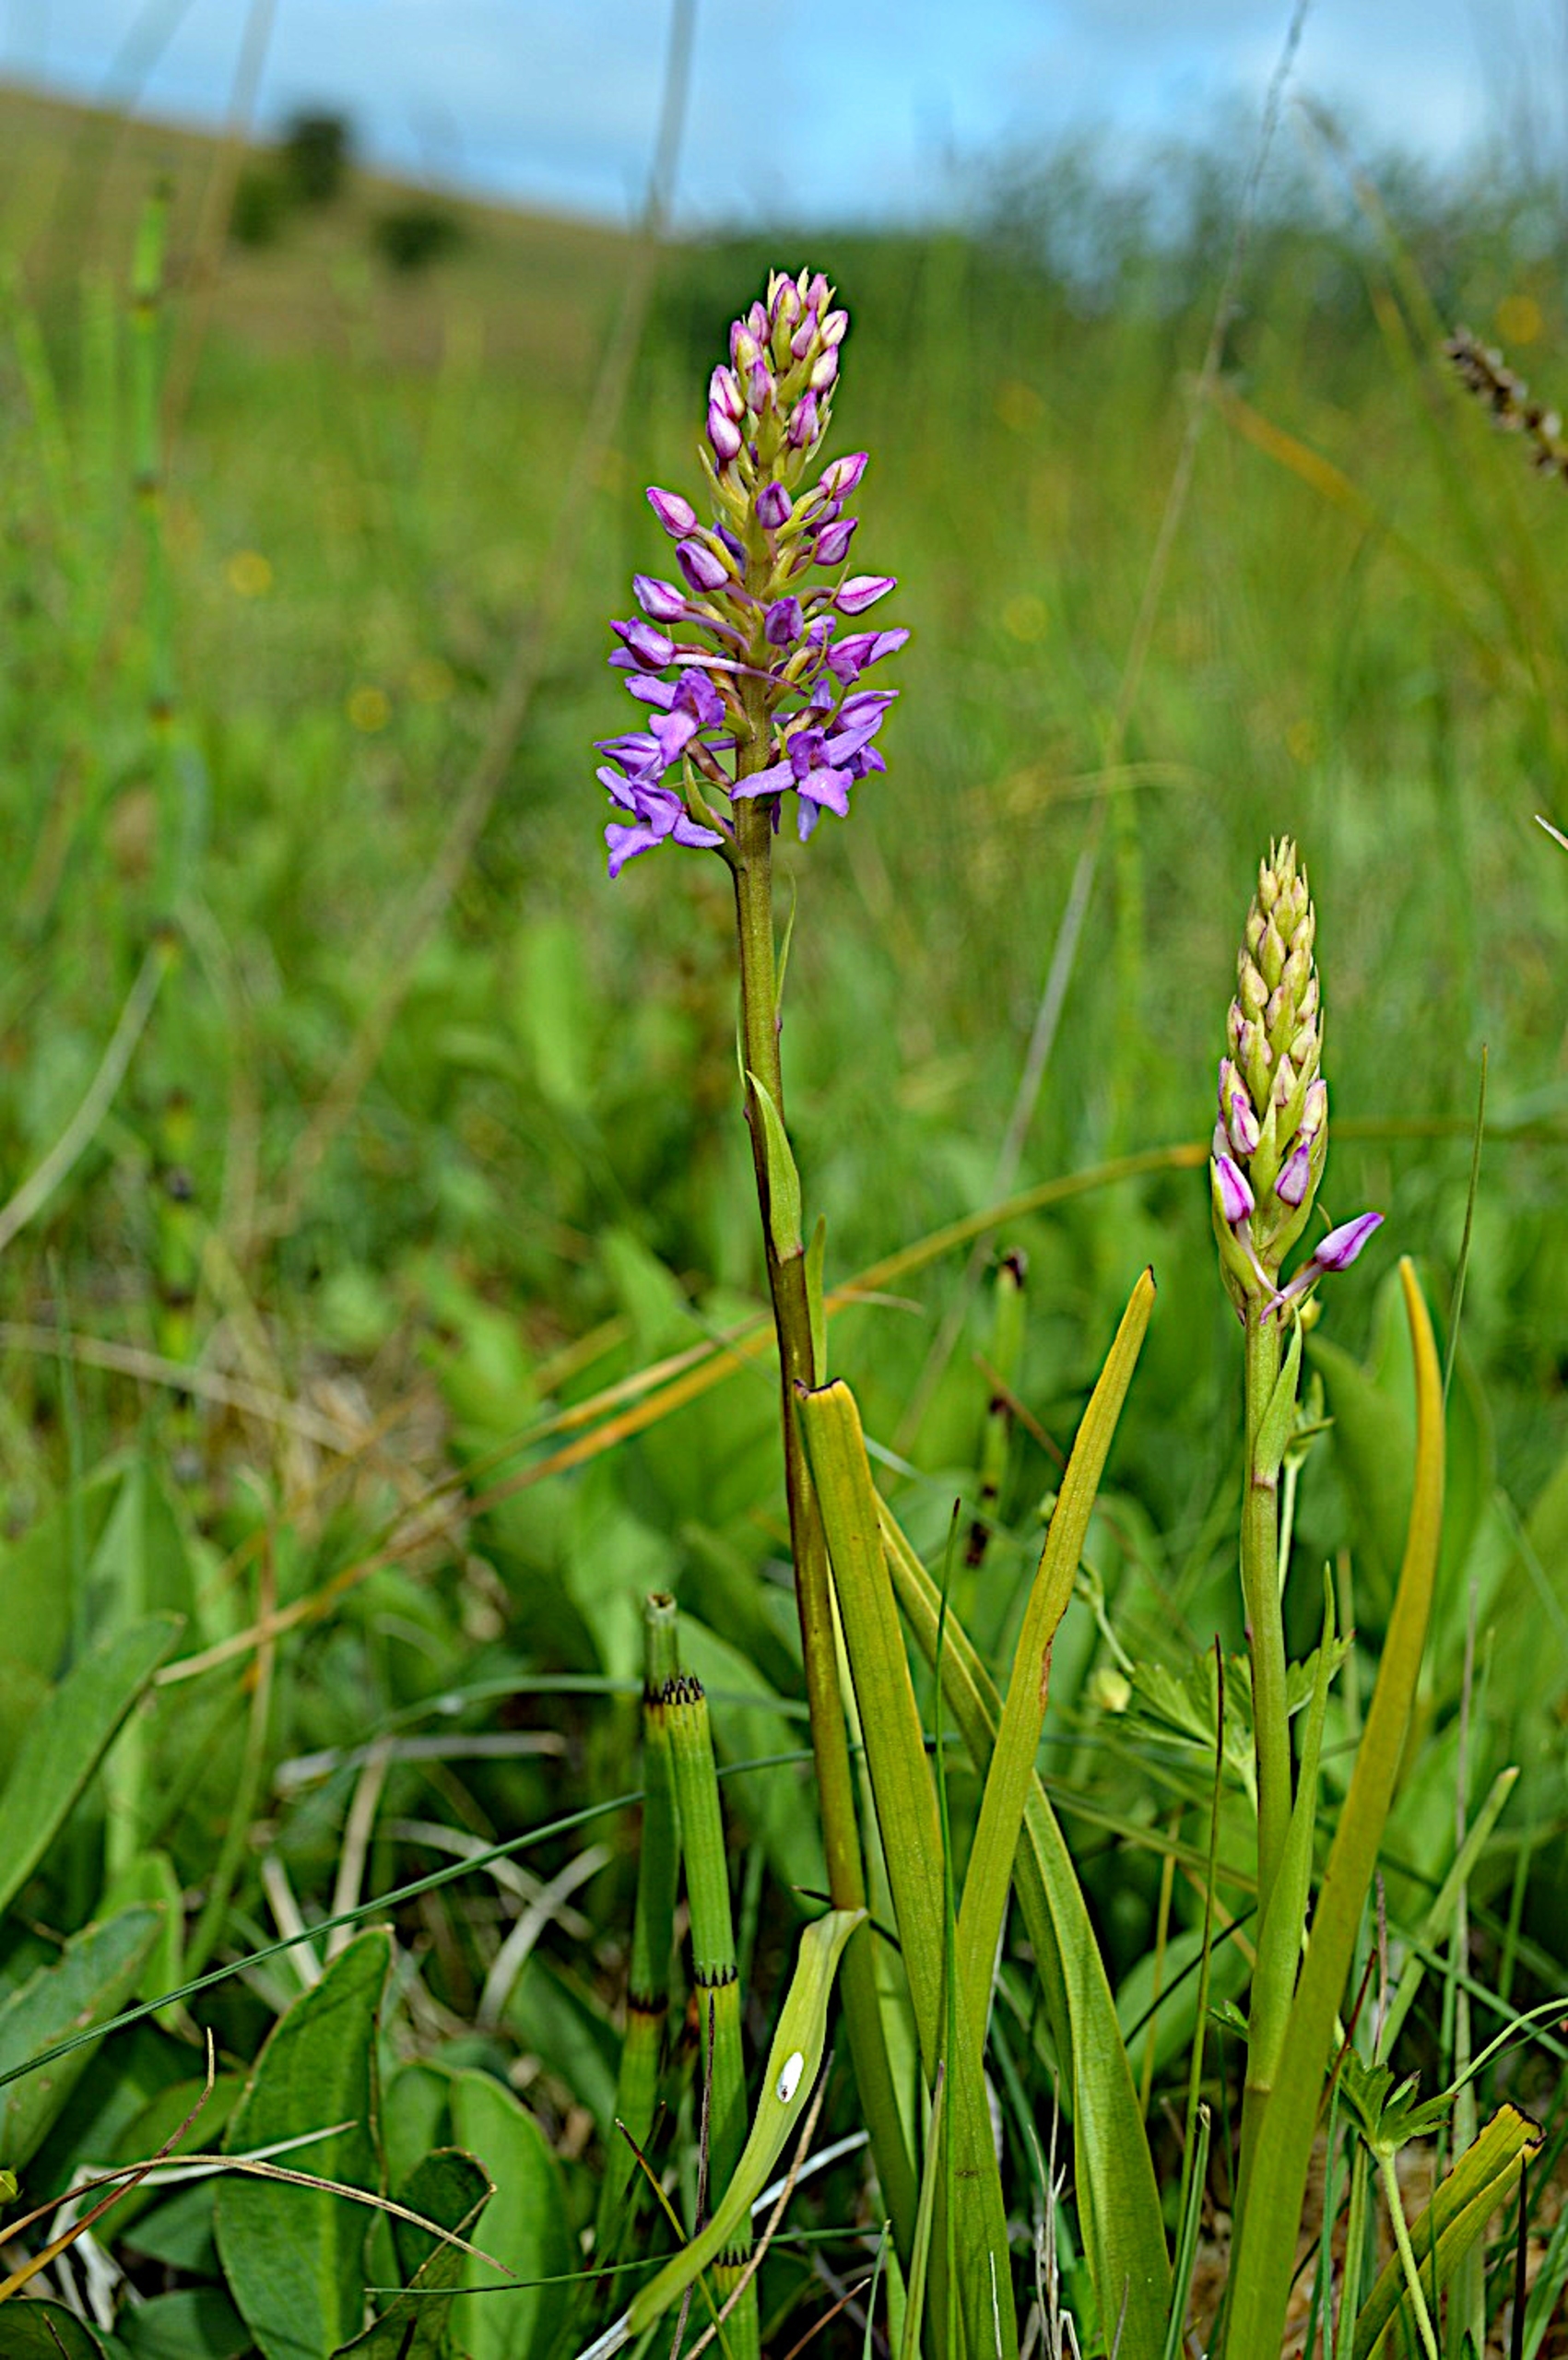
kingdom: Plantae
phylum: Tracheophyta
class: Liliopsida
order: Asparagales
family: Orchidaceae
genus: Gymnadenia
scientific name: Gymnadenia conopsea
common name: Trådspore
